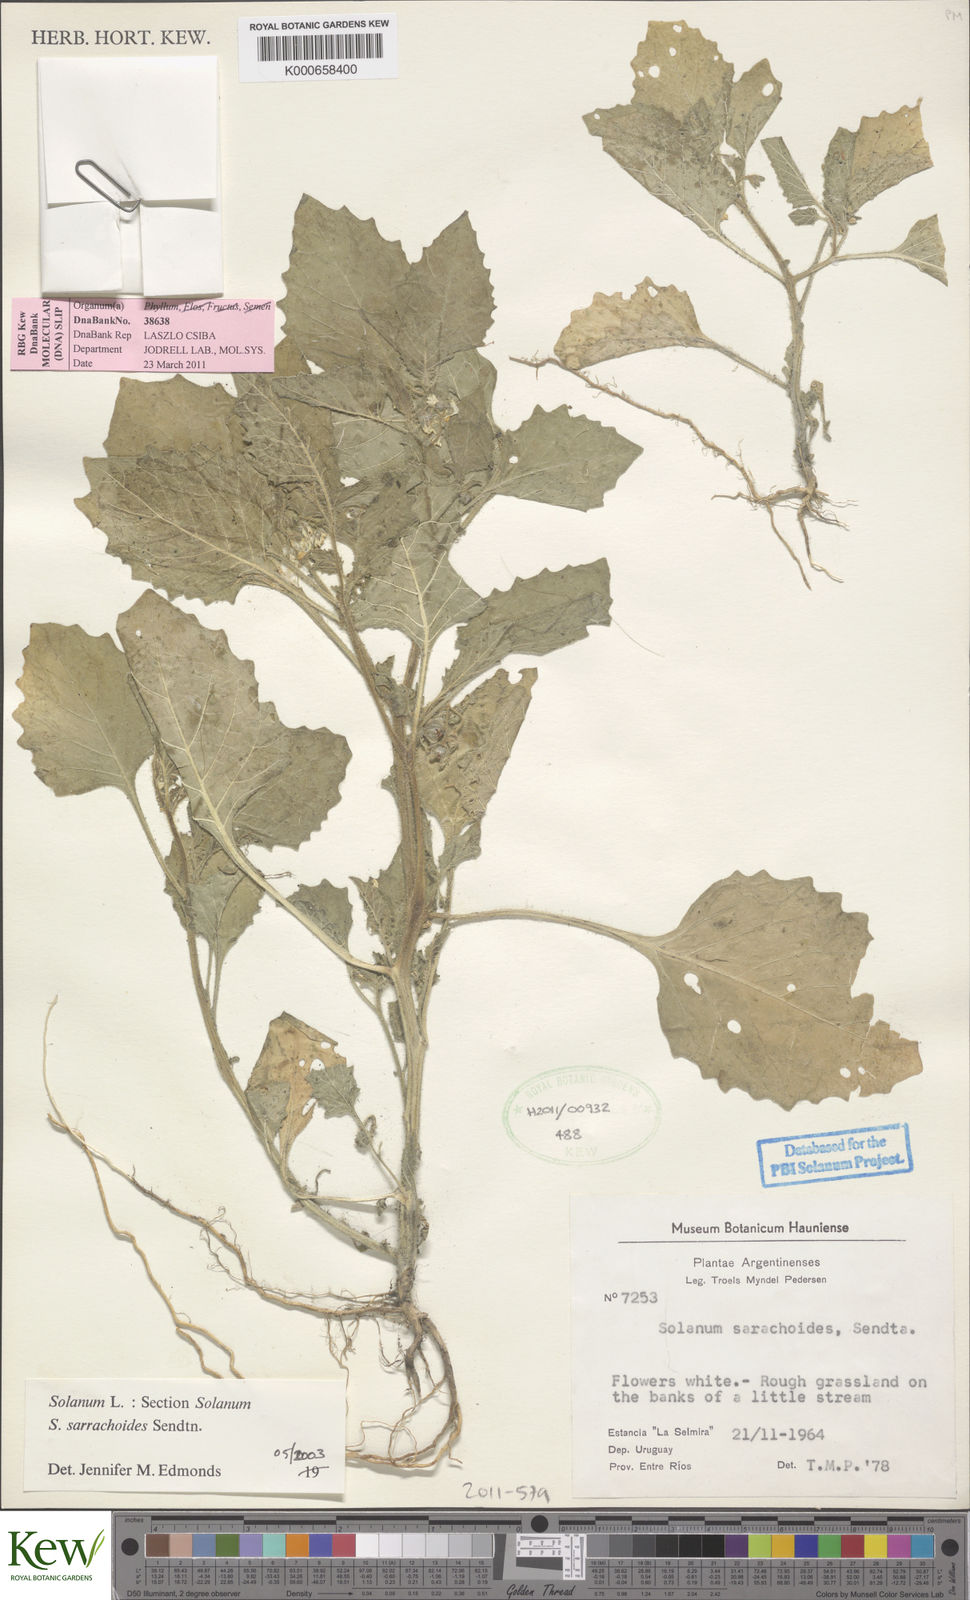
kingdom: Plantae
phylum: Tracheophyta
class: Magnoliopsida
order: Solanales
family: Solanaceae
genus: Solanum
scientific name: Solanum sarrachoides
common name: Leafy-fruited nightshade
